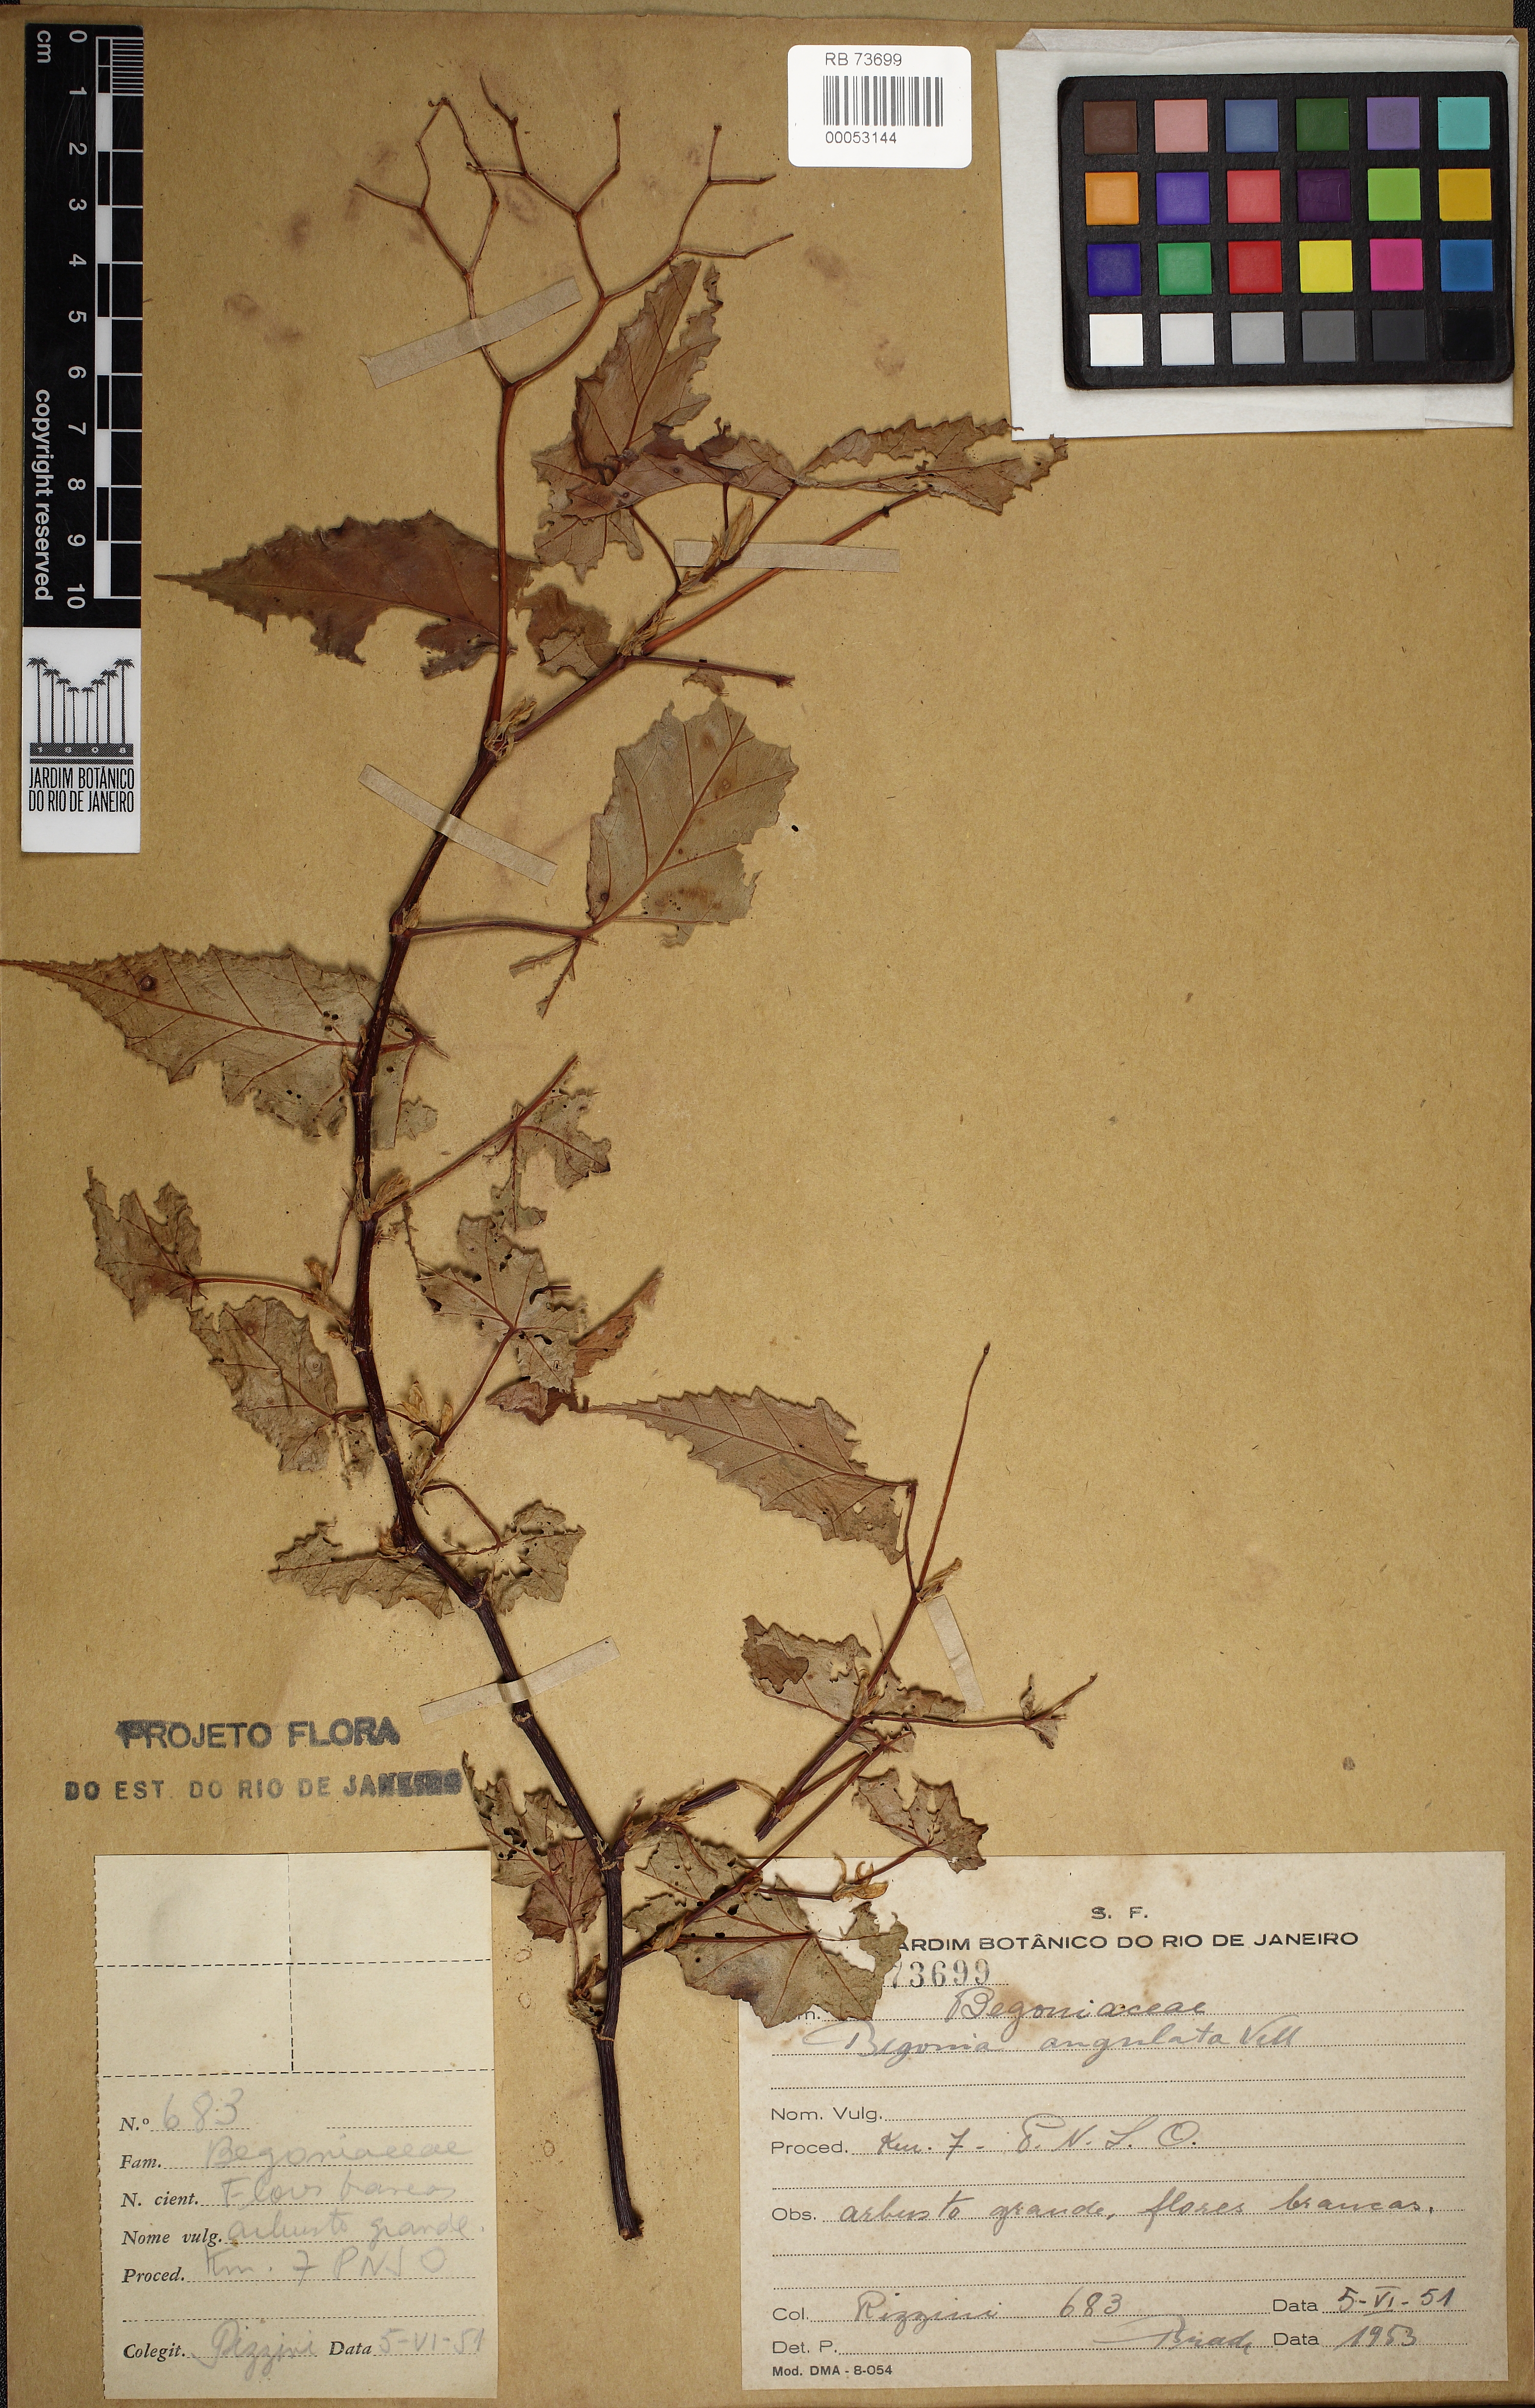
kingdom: Plantae
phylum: Tracheophyta
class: Magnoliopsida
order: Cucurbitales
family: Begoniaceae
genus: Begonia
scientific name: Begonia angulata
